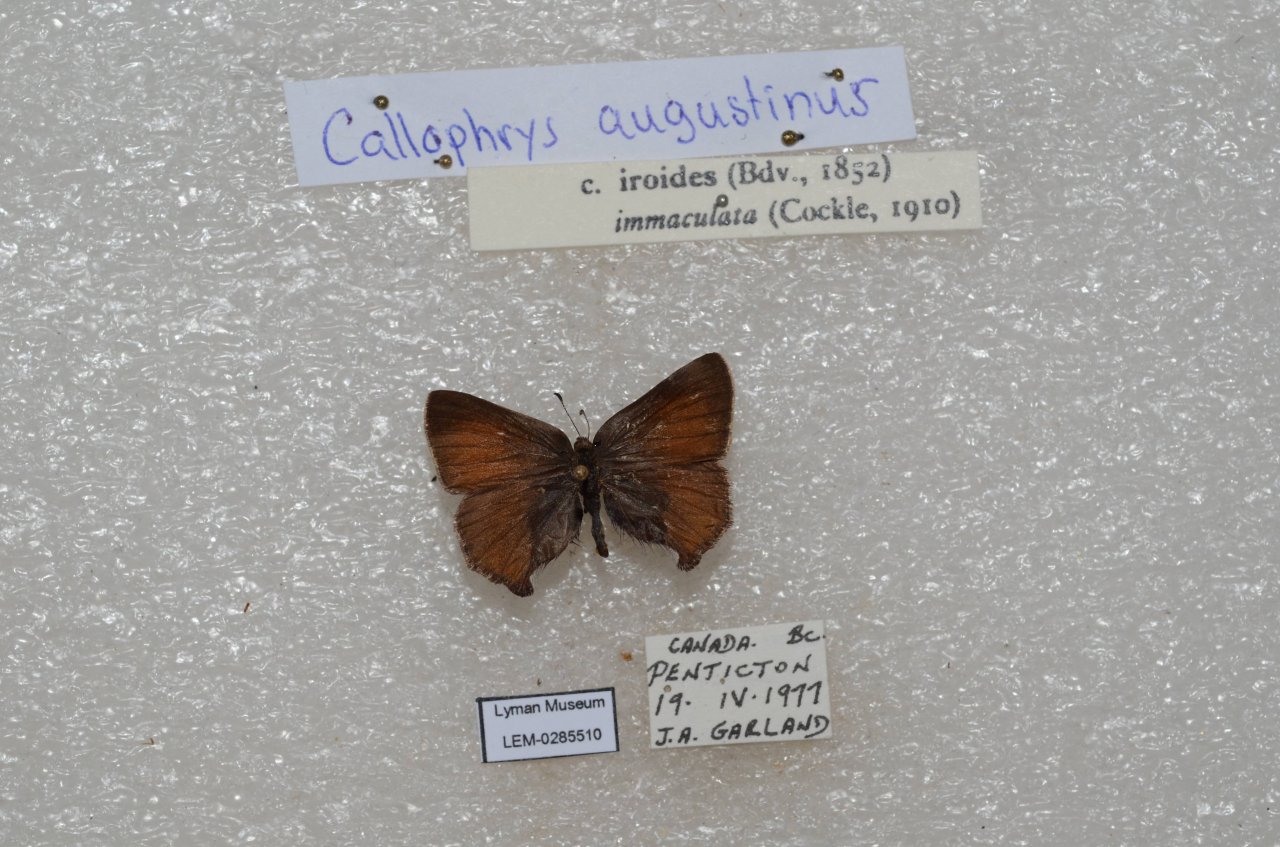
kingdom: Animalia
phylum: Arthropoda
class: Insecta
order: Lepidoptera
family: Lycaenidae
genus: Incisalia
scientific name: Incisalia irioides
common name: Brown Elfin
